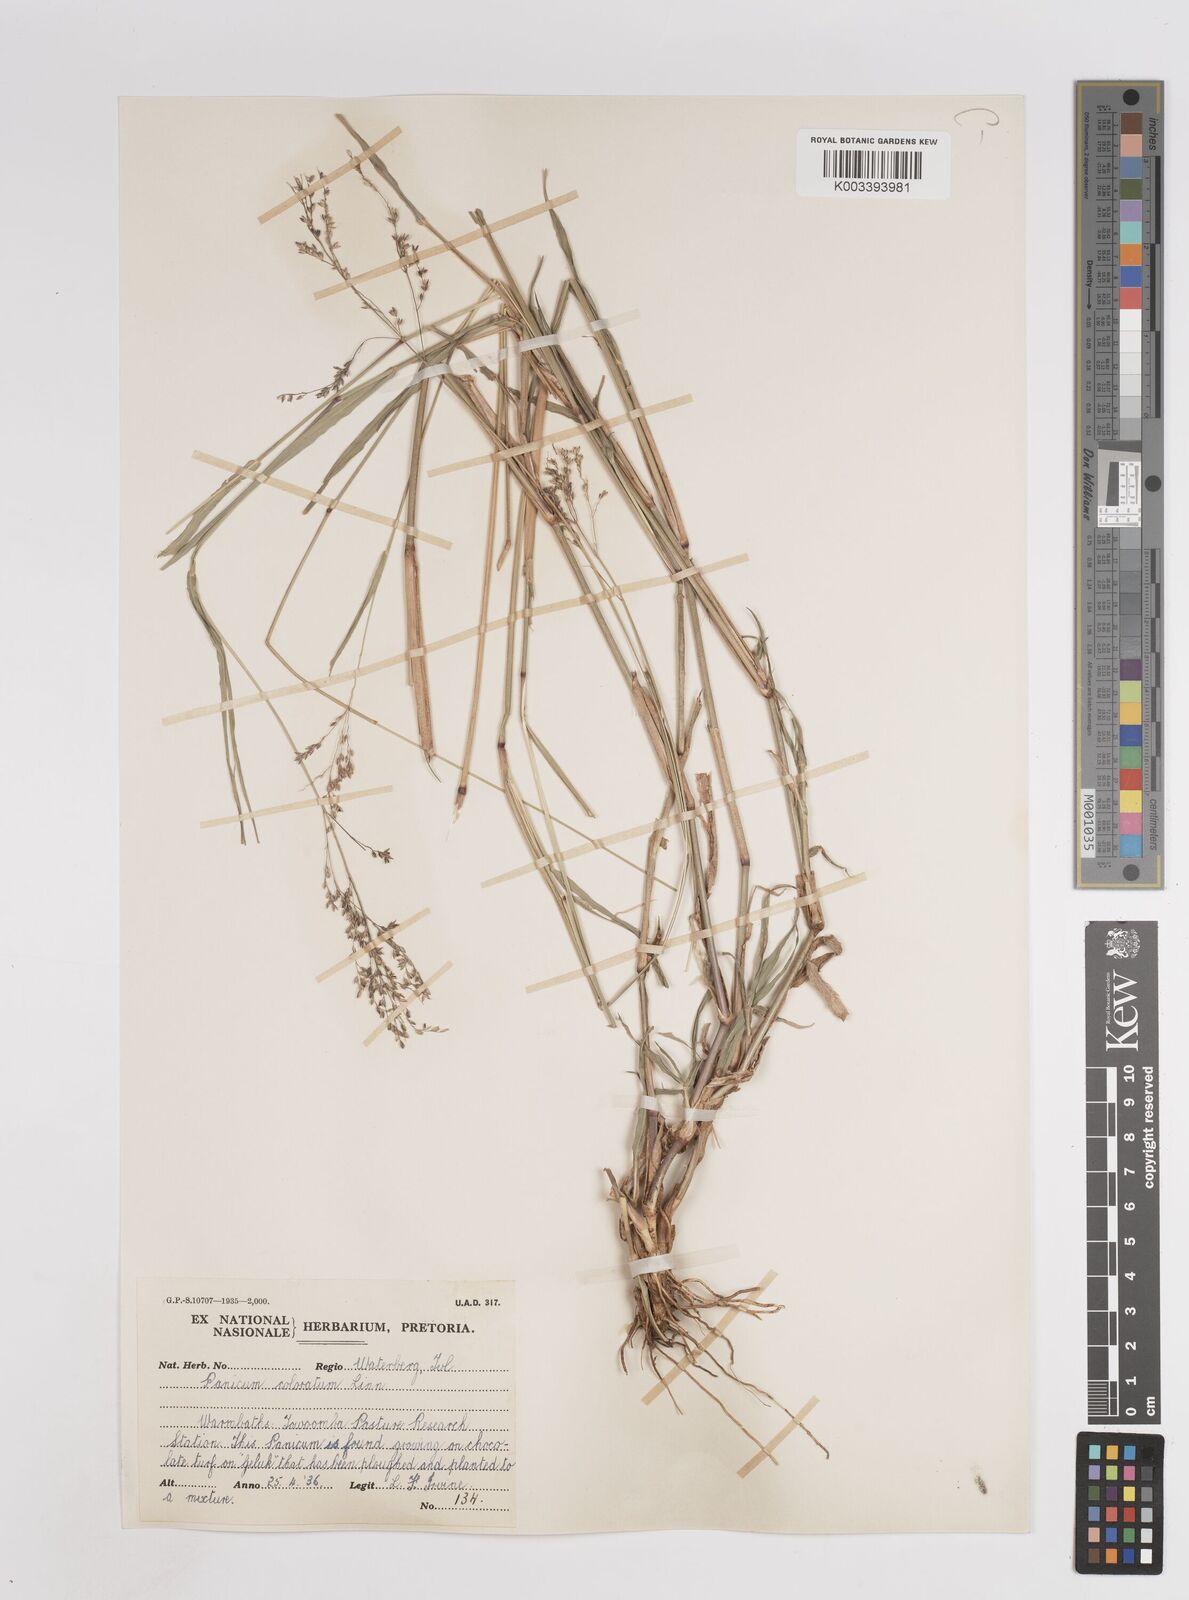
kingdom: Plantae
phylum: Tracheophyta
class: Liliopsida
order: Poales
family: Poaceae
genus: Panicum
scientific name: Panicum coloratum
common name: Kleingrass
